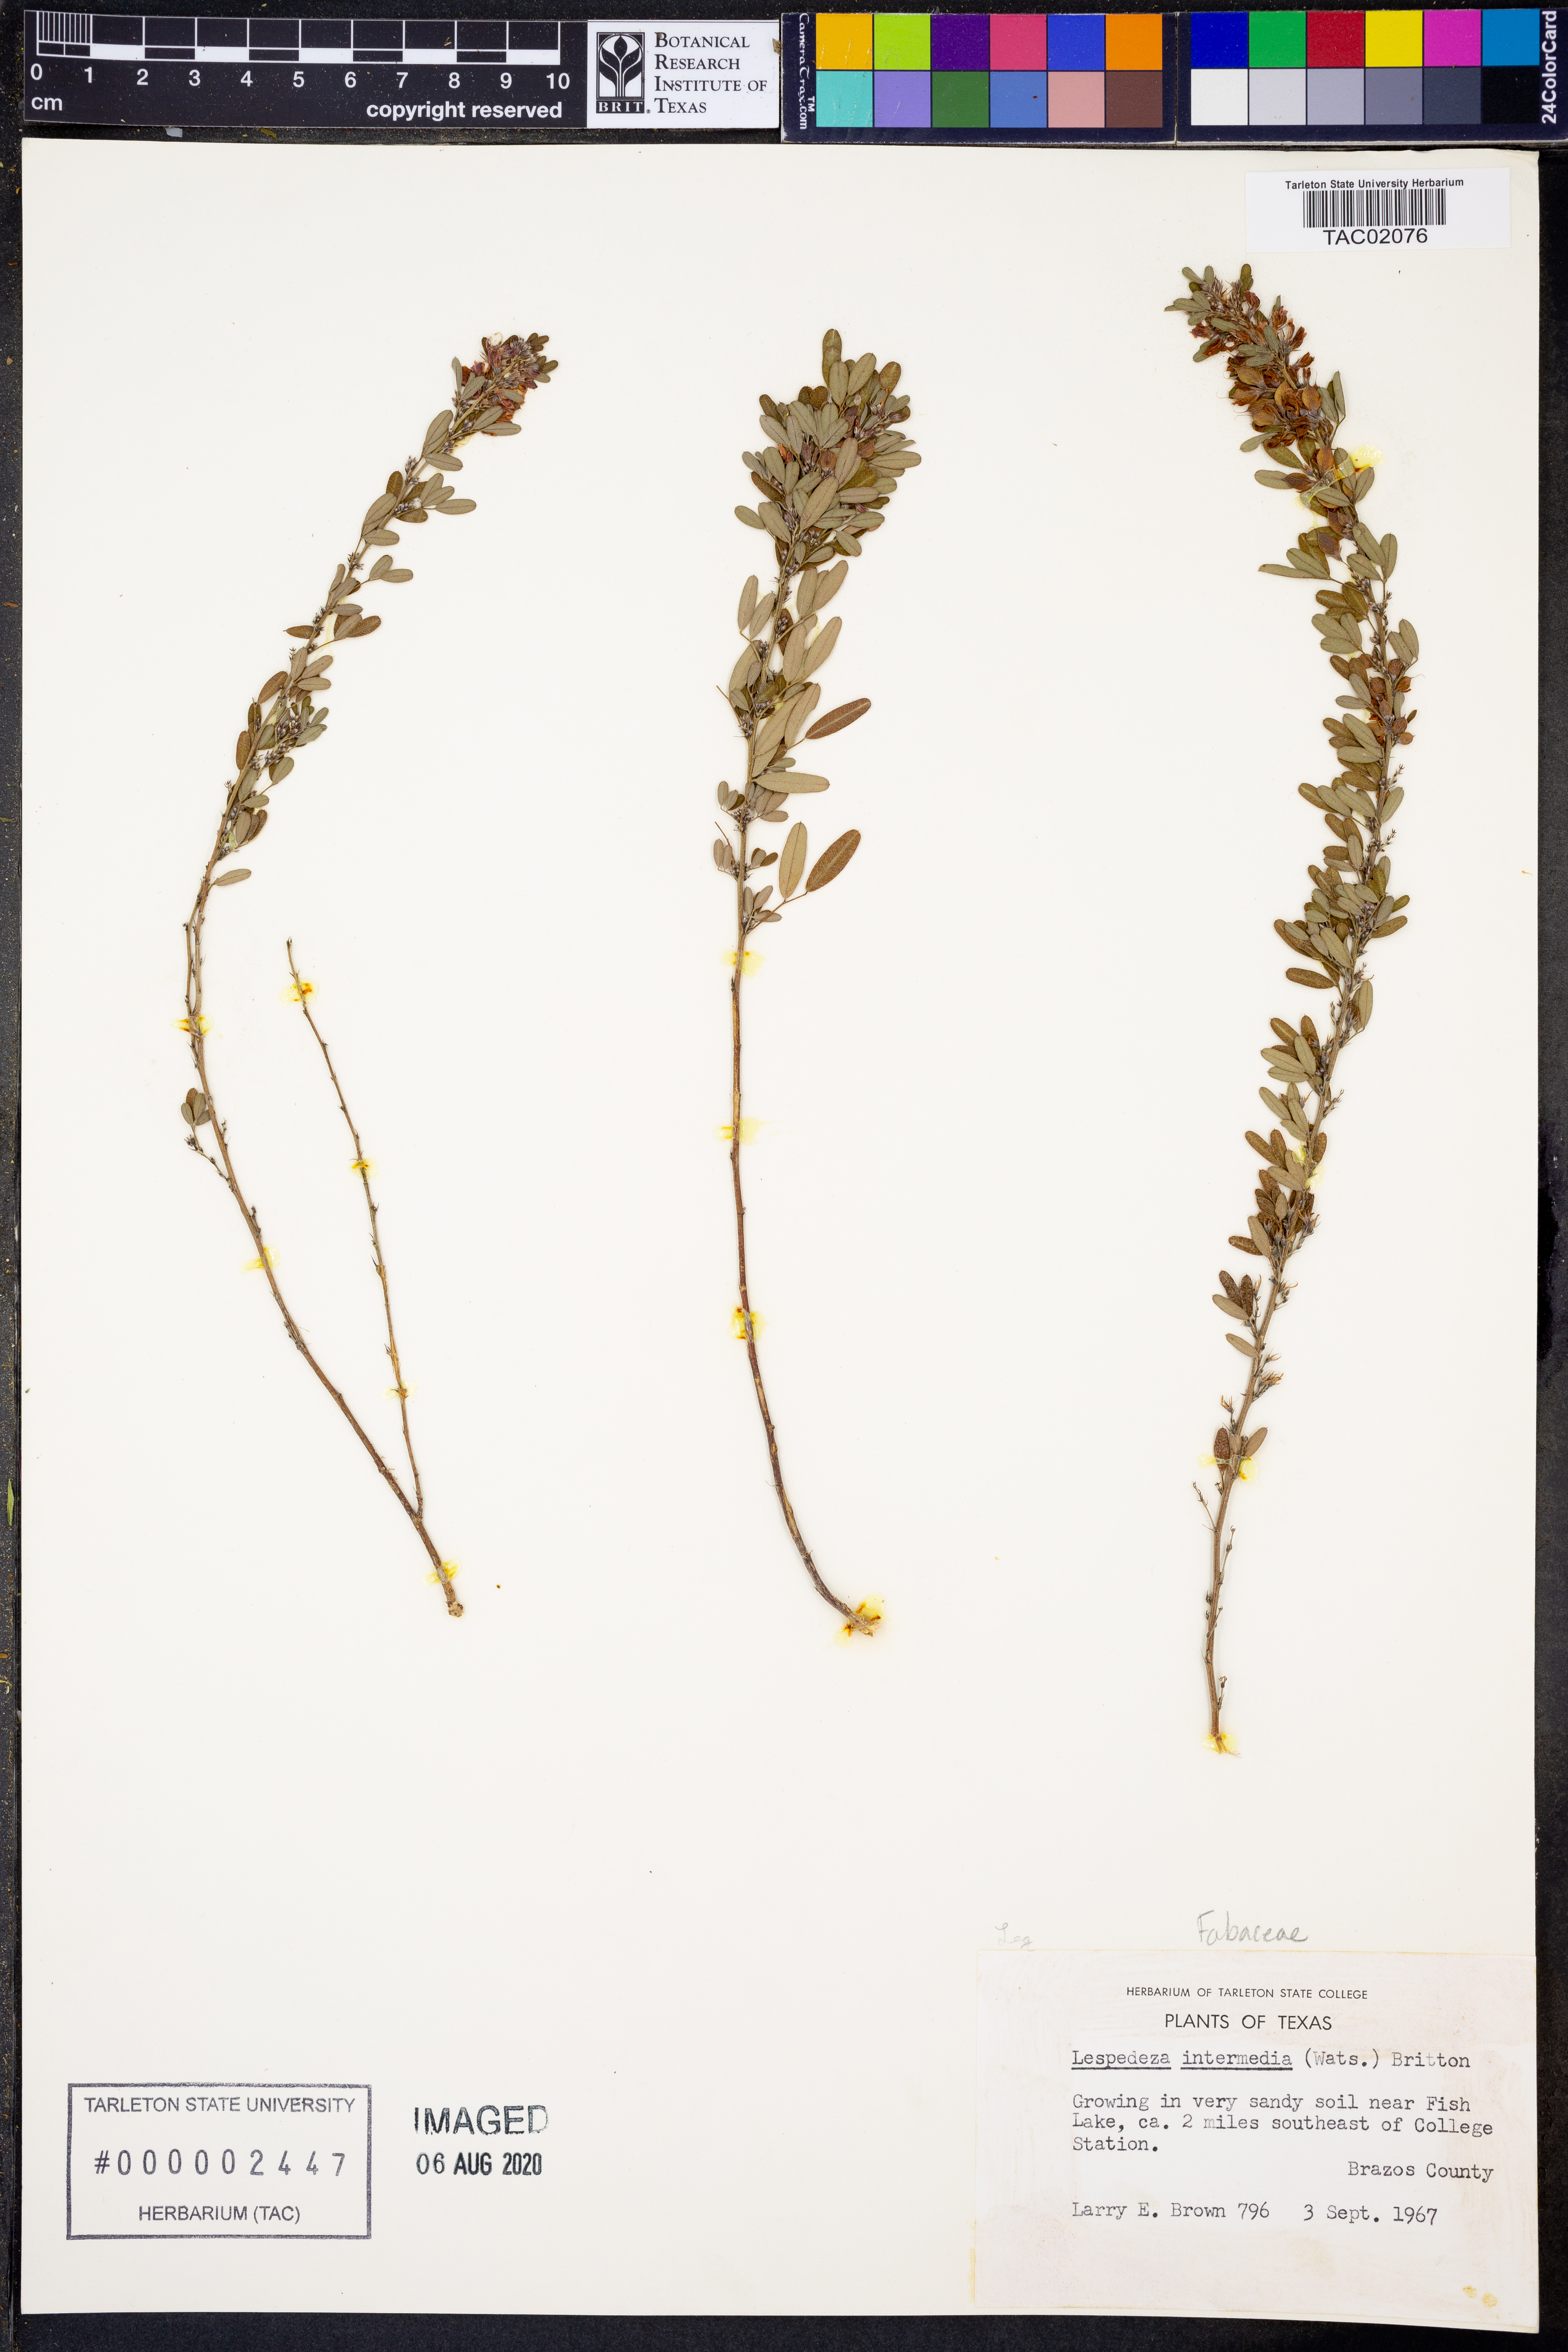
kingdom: Plantae
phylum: Tracheophyta
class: Magnoliopsida
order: Fabales
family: Fabaceae
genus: Lespedeza
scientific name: Lespedeza
